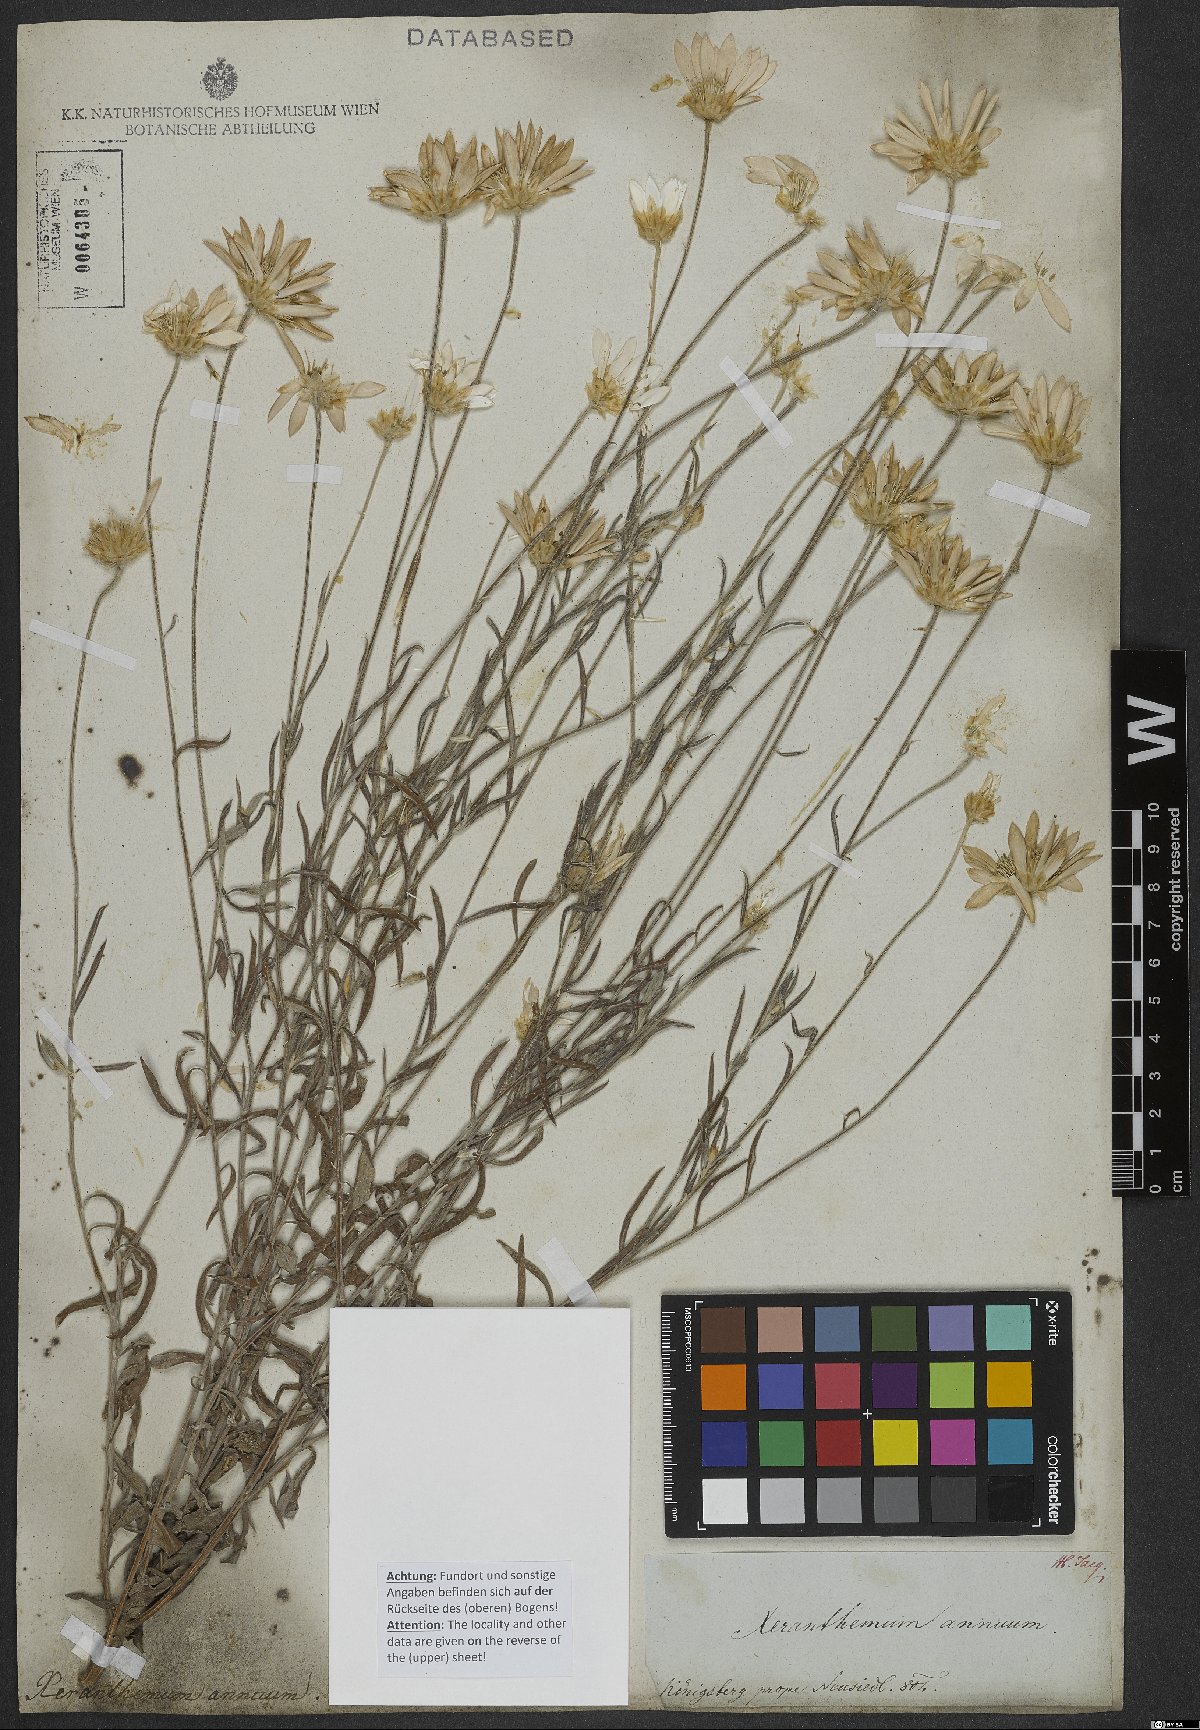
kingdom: Plantae
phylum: Tracheophyta
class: Magnoliopsida
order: Asterales
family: Asteraceae
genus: Xeranthemum
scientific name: Xeranthemum annuum
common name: Immortelle
